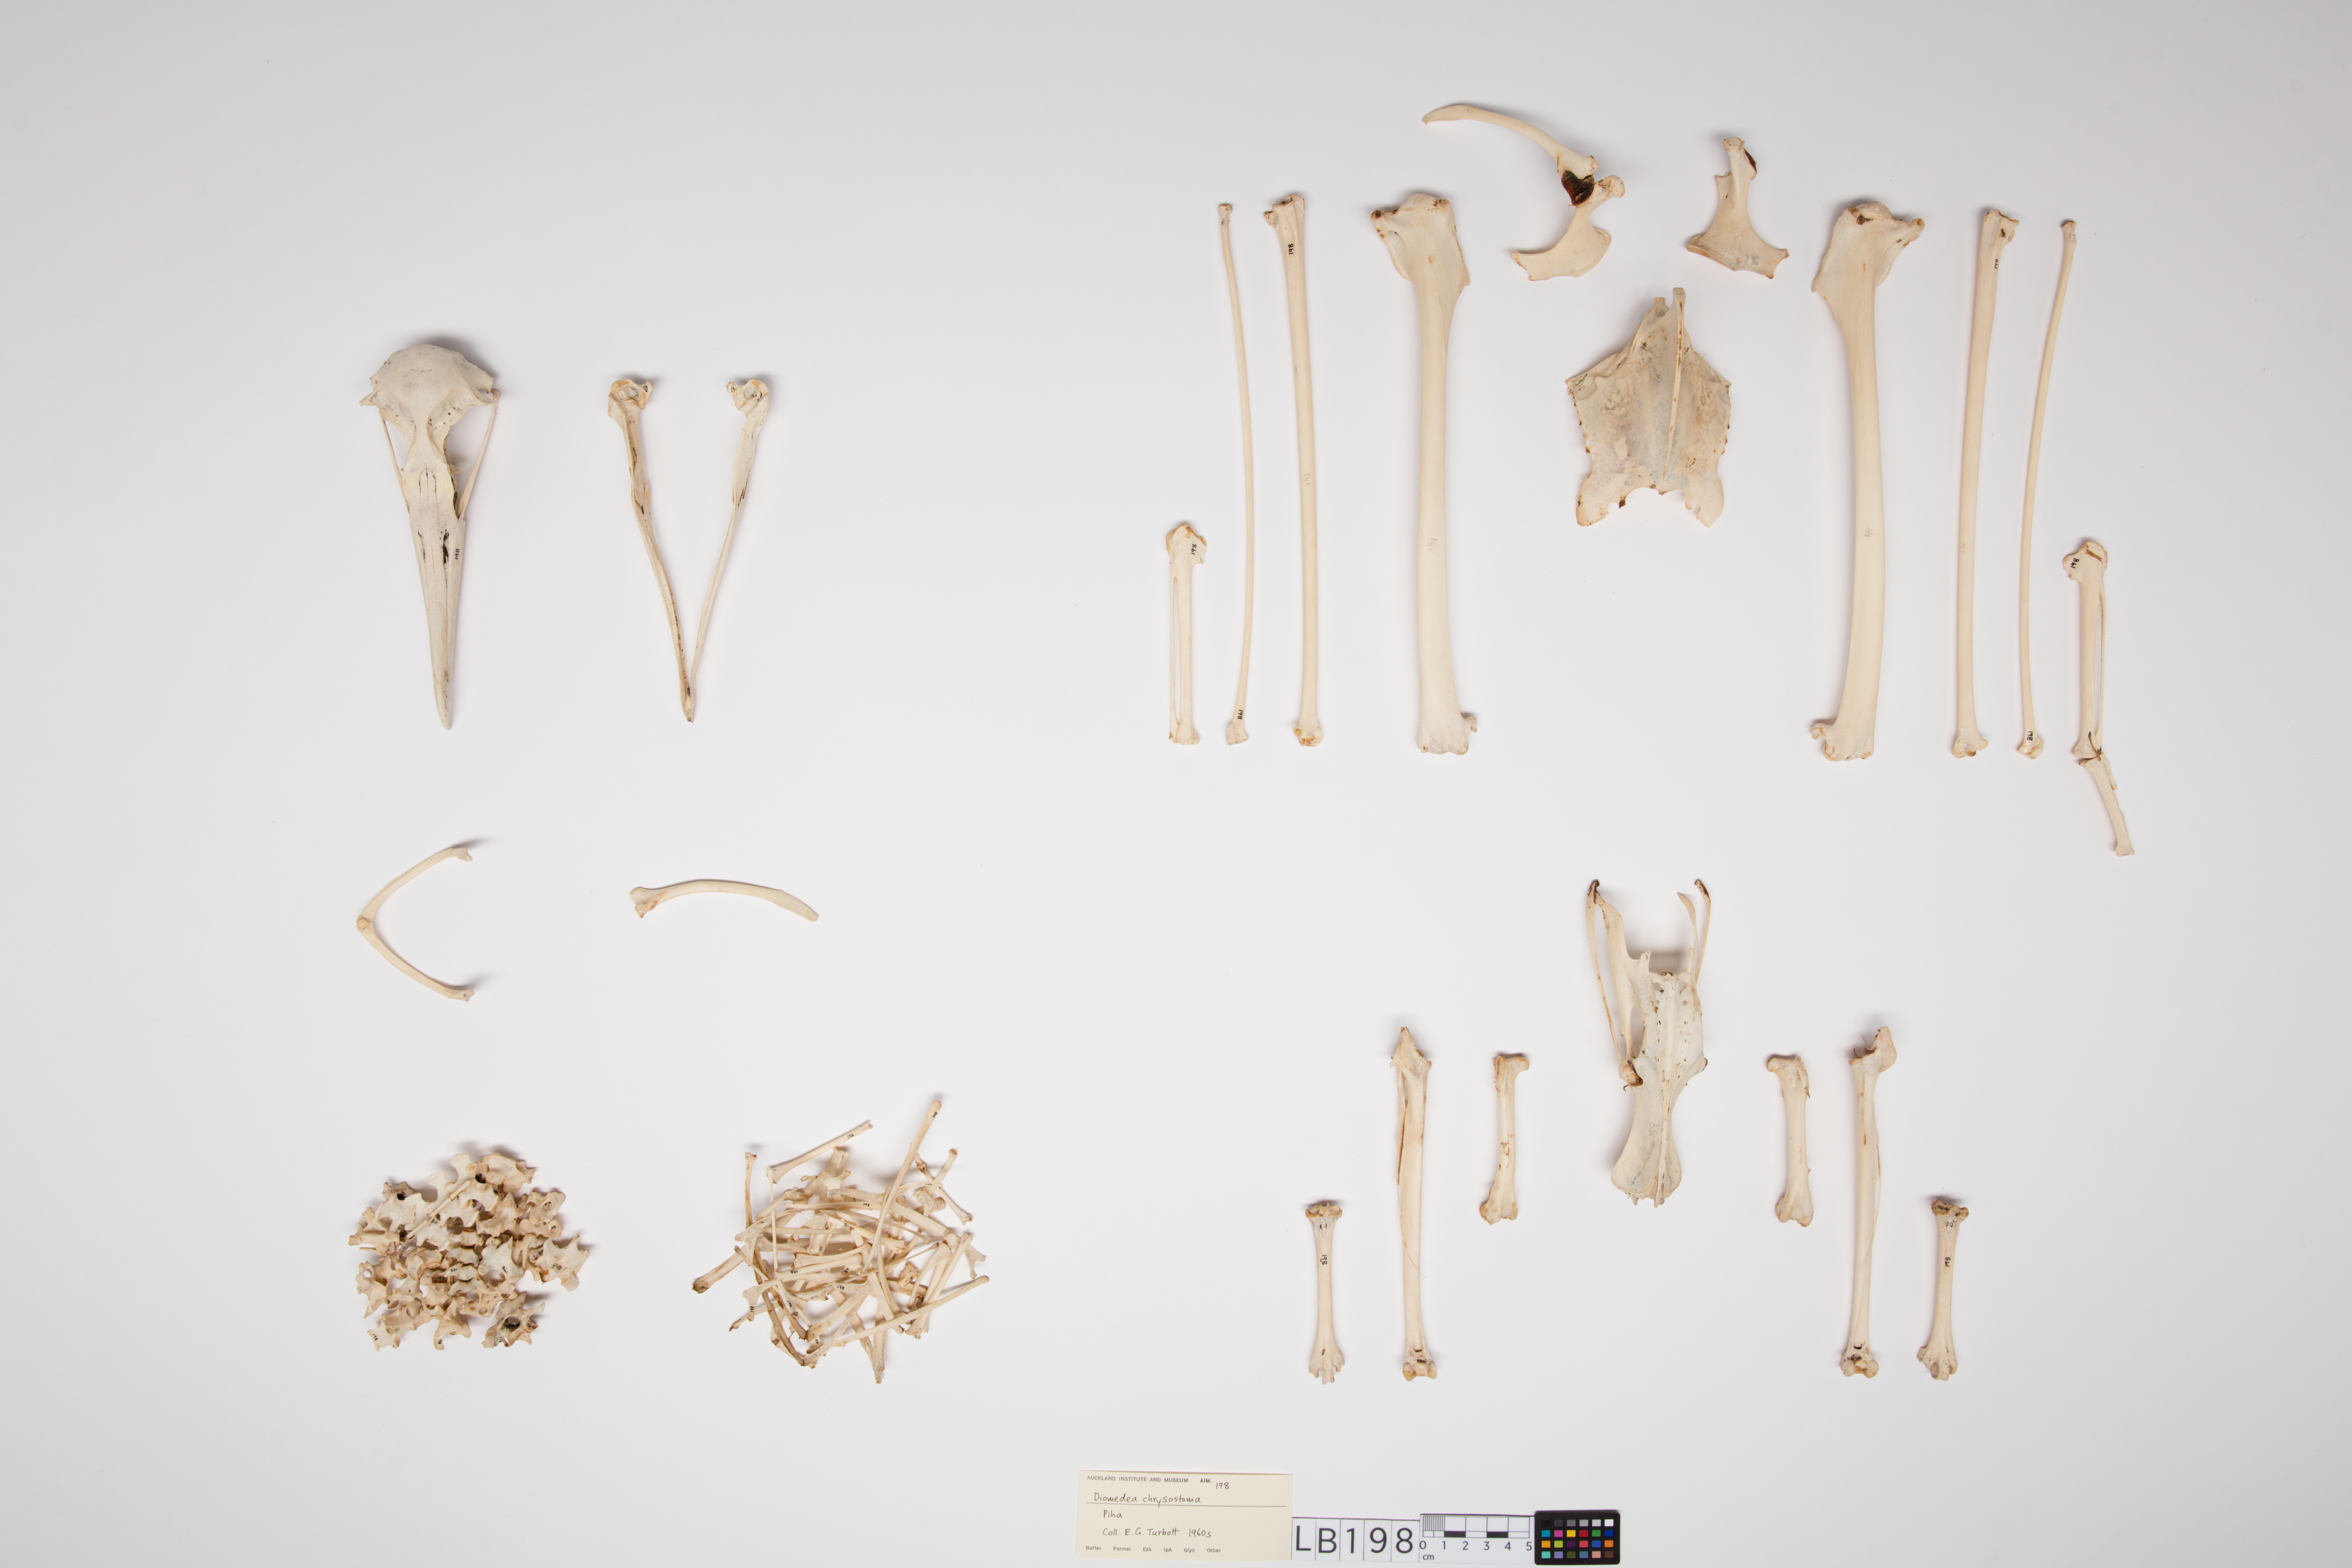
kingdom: Animalia
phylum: Chordata
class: Aves
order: Procellariiformes
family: Diomedeidae
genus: Thalassarche
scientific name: Thalassarche chrysostoma
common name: Grey-headed albatross
